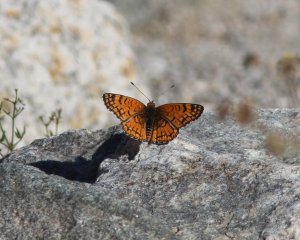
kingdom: Animalia
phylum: Arthropoda
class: Insecta
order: Lepidoptera
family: Nymphalidae
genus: Chlosyne
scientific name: Chlosyne acastus
